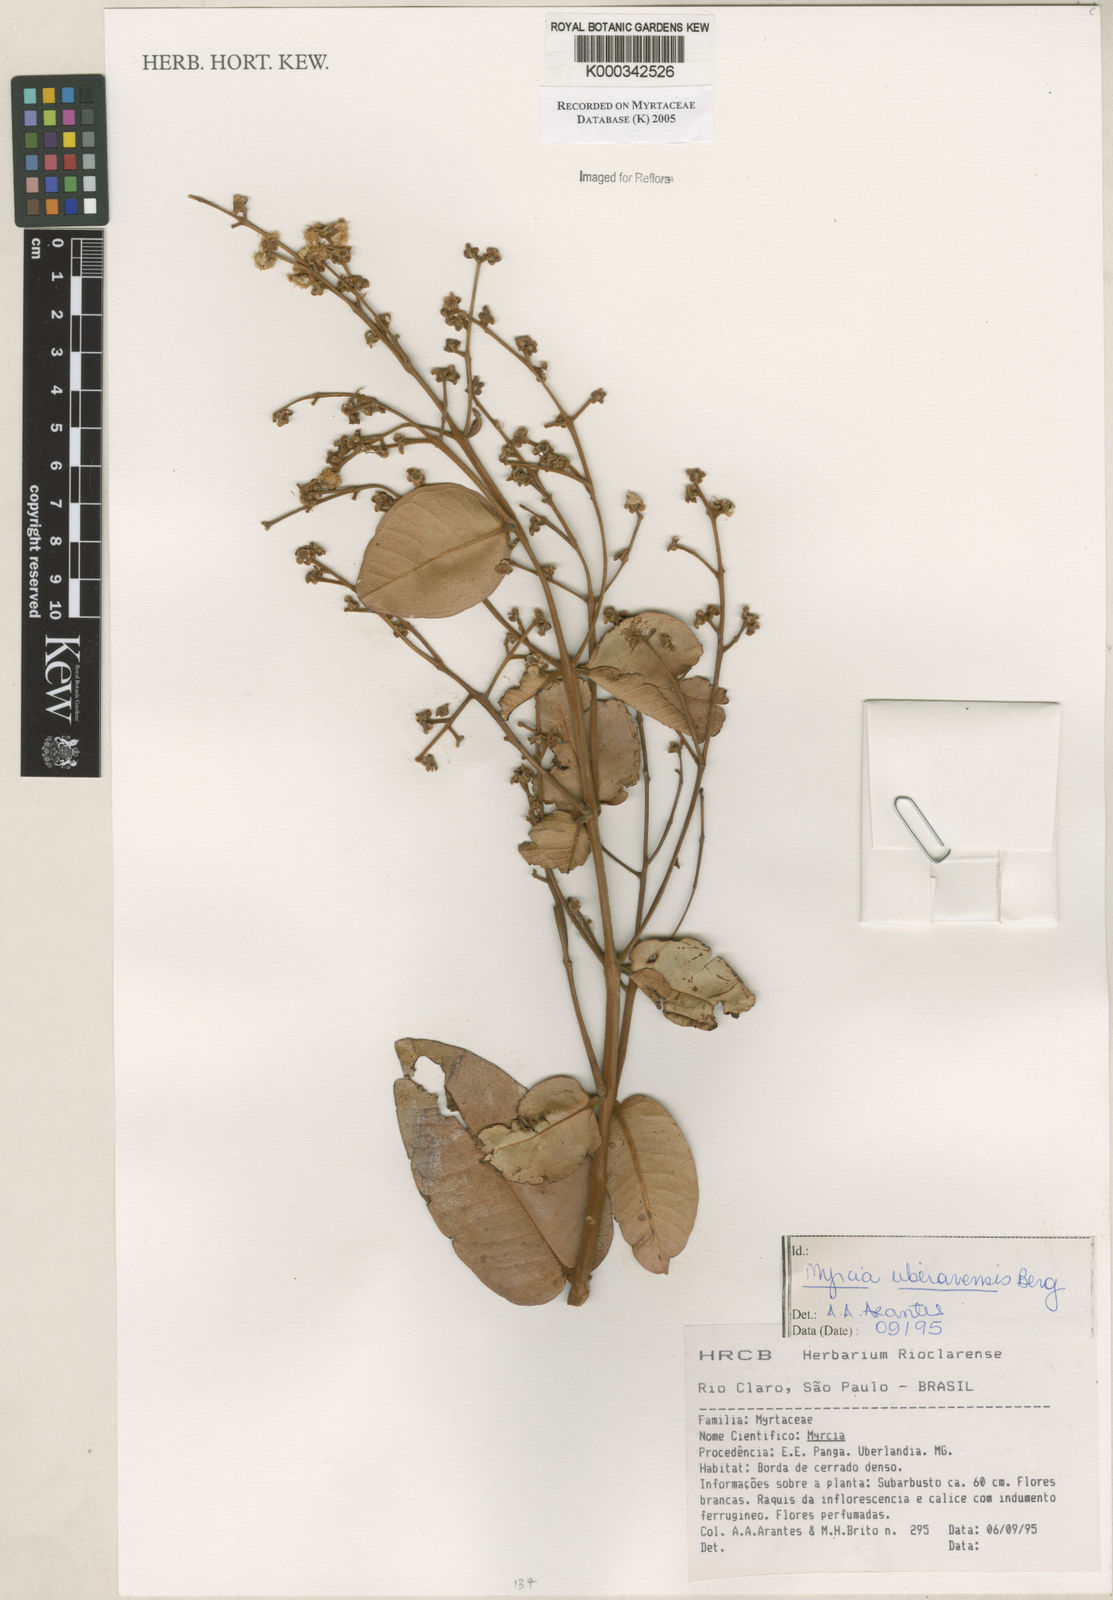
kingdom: Plantae
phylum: Tracheophyta
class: Magnoliopsida
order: Myrtales
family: Myrtaceae
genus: Myrcia
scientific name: Myrcia uberavensis
